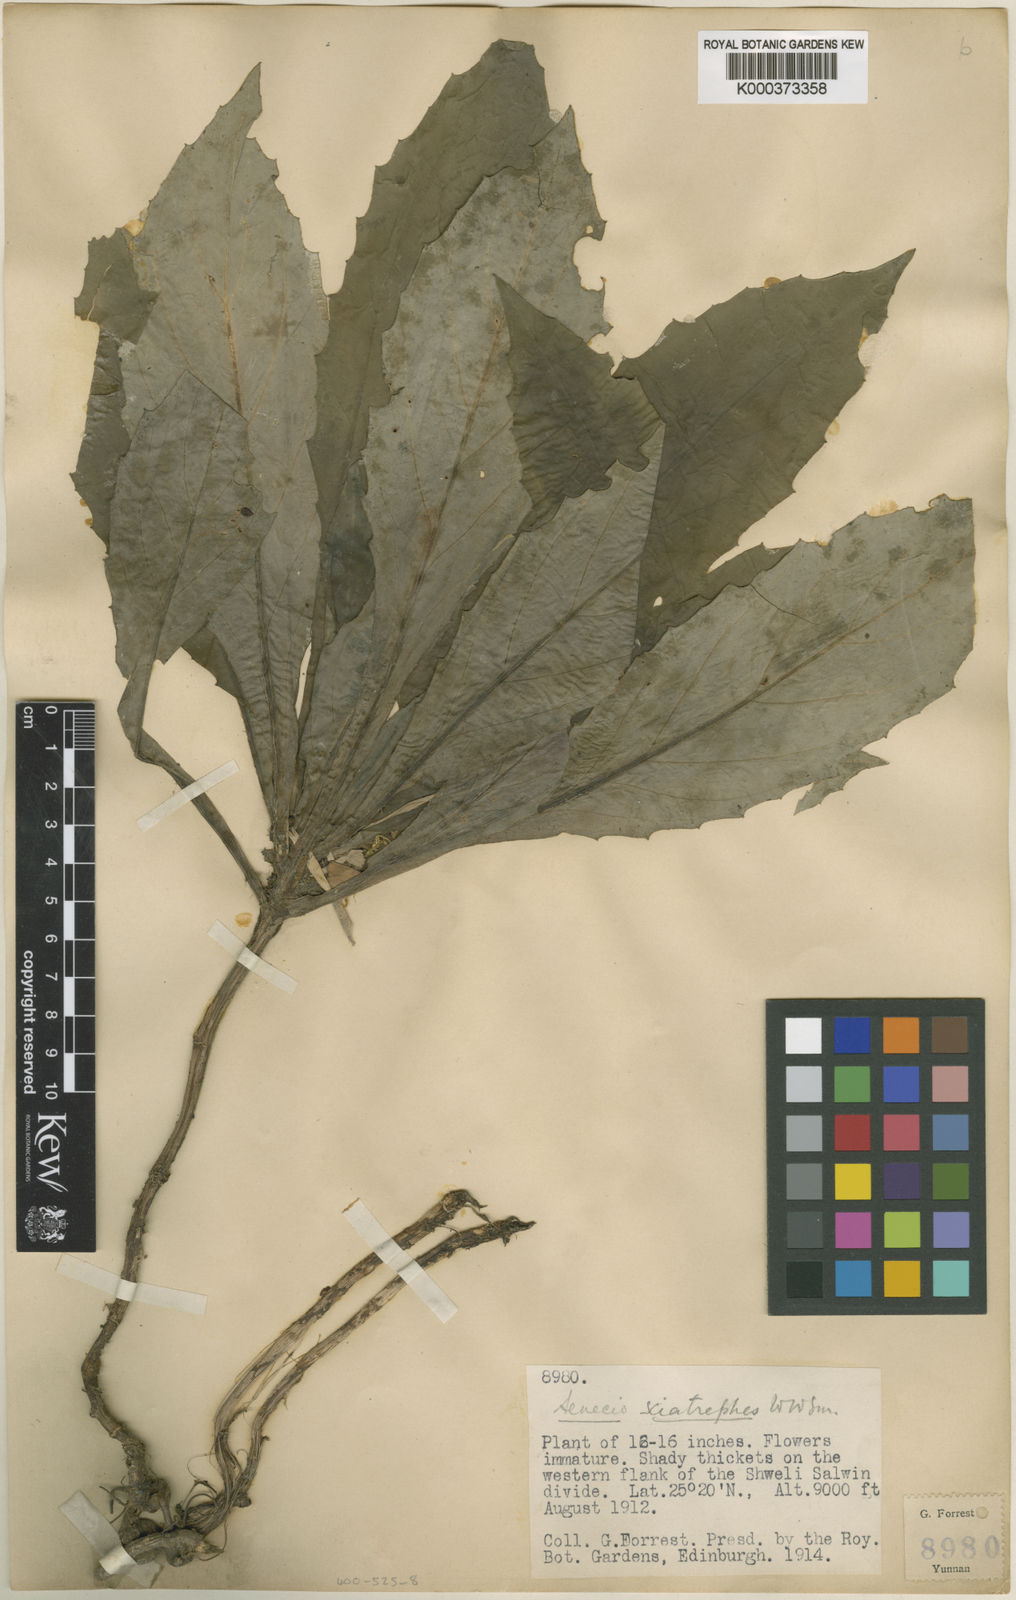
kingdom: Plantae
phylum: Tracheophyta
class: Magnoliopsida
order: Asterales
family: Asteraceae
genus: Synotis
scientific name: Synotis sciatrephes
